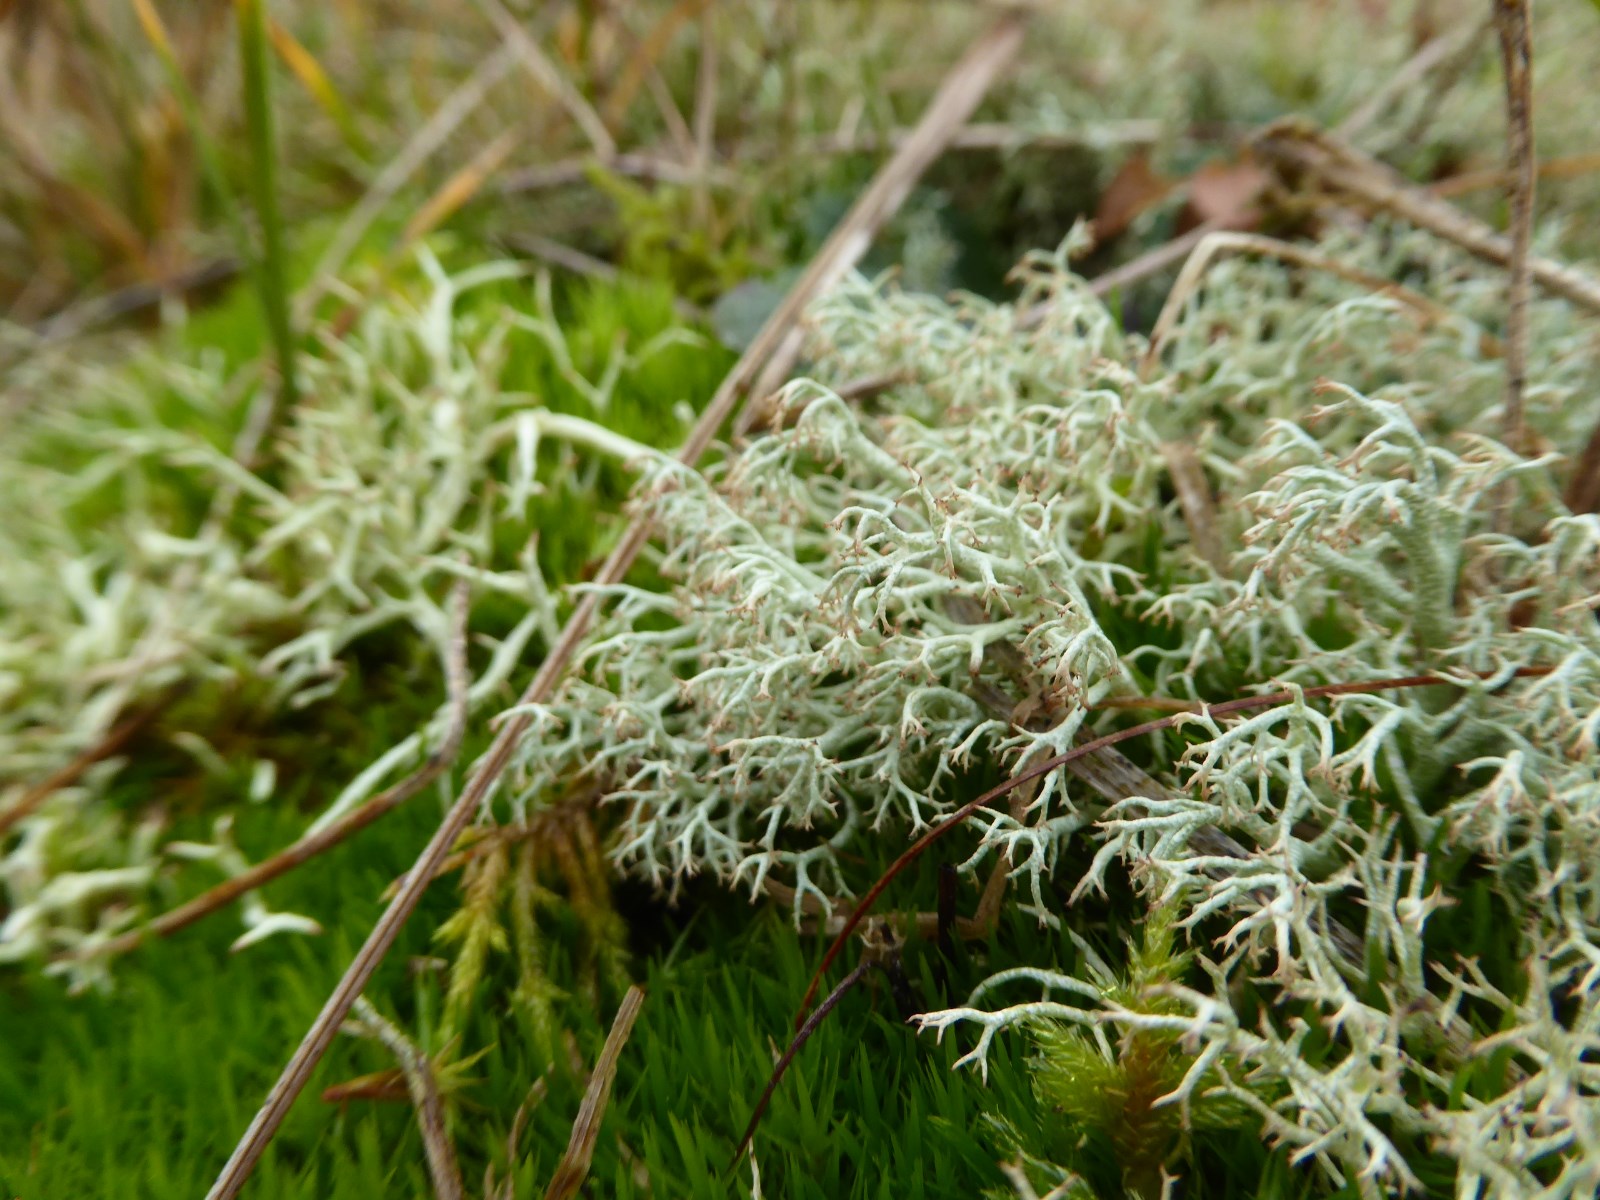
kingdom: Fungi
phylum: Ascomycota
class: Lecanoromycetes
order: Lecanorales
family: Cladoniaceae
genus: Cladonia
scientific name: Cladonia ciliata
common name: spinkel rensdyrlav
